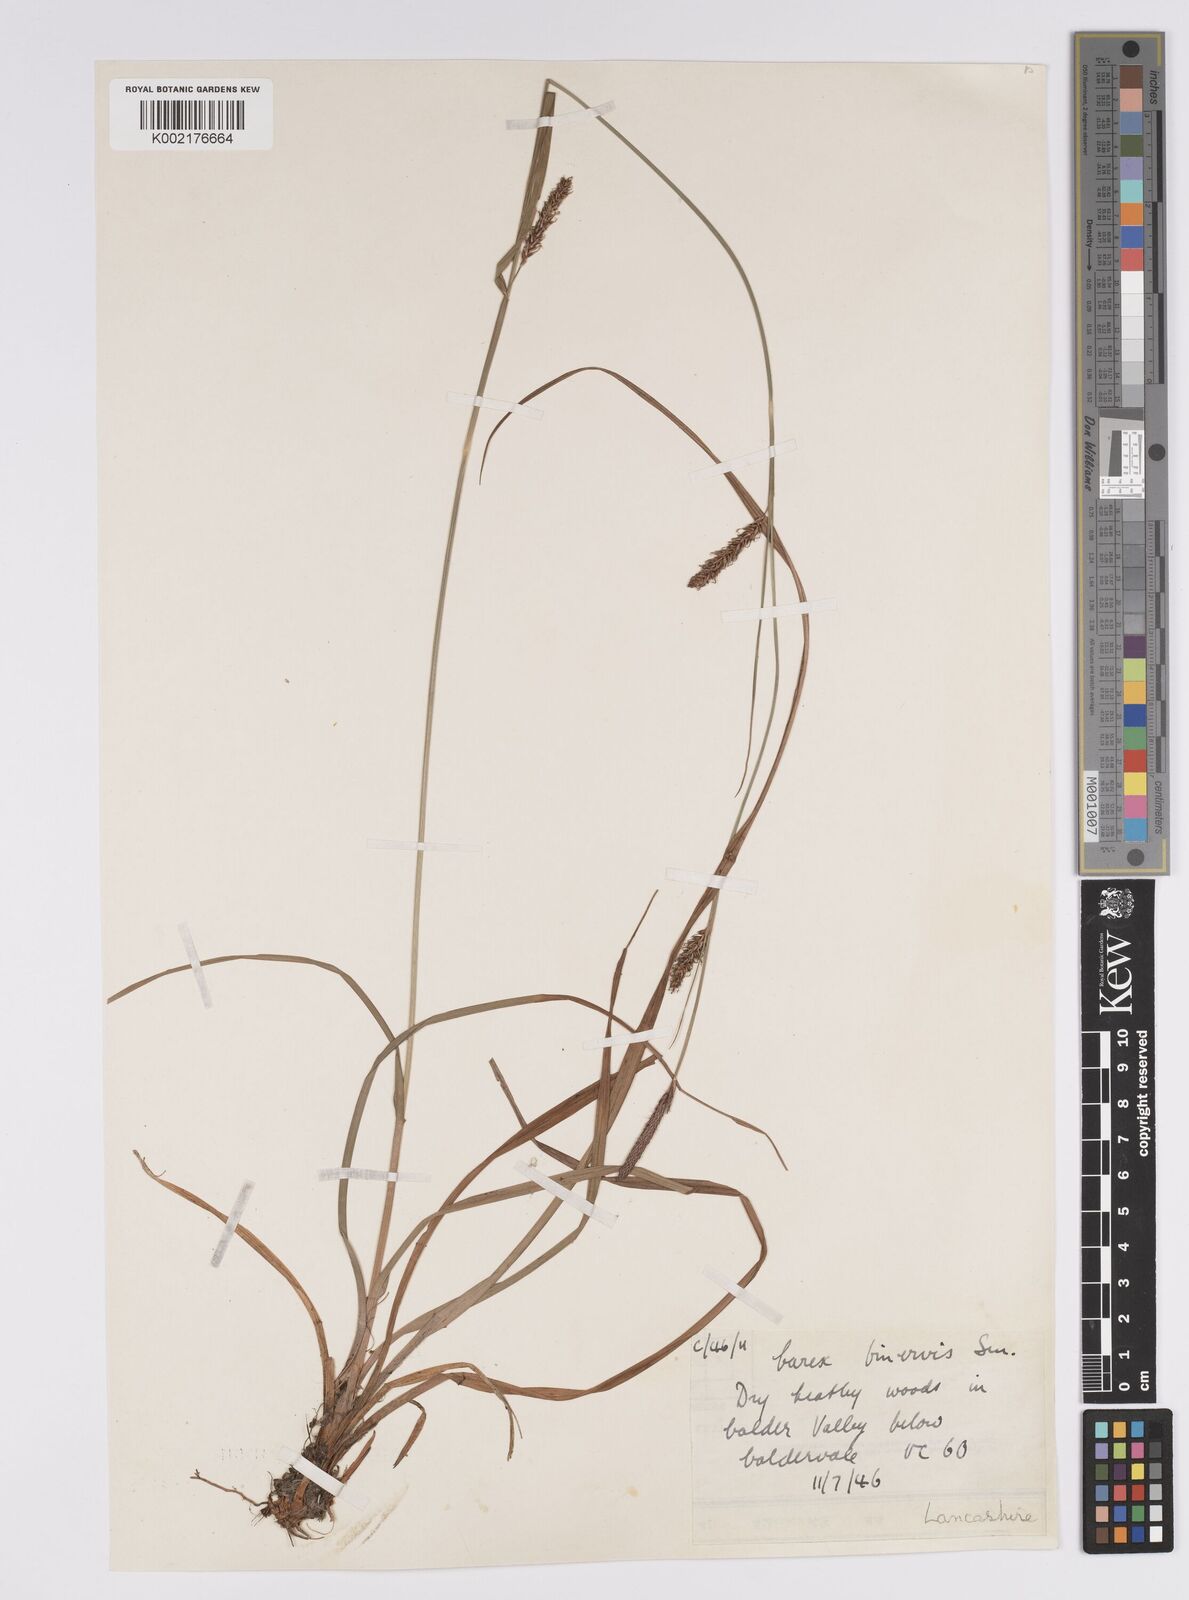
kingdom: Plantae
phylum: Tracheophyta
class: Liliopsida
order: Poales
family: Cyperaceae
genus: Carex
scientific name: Carex binervis
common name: Green-ribbed sedge
